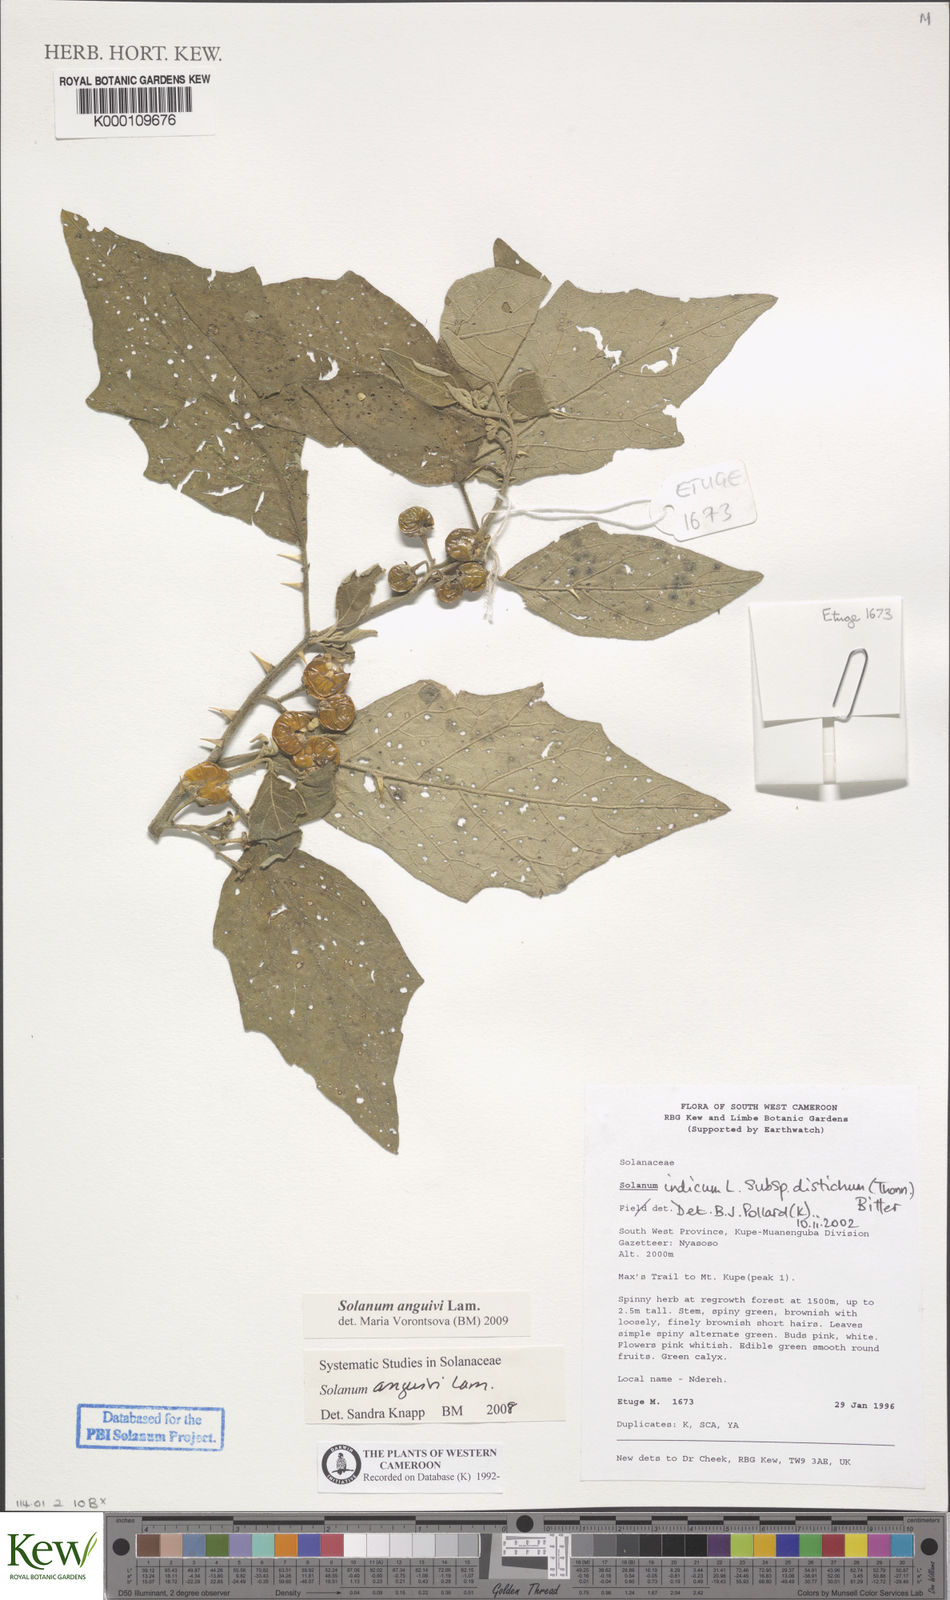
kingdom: Plantae
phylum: Tracheophyta
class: Magnoliopsida
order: Solanales
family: Solanaceae
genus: Solanum
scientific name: Solanum anguivi
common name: Forest bitterberry
